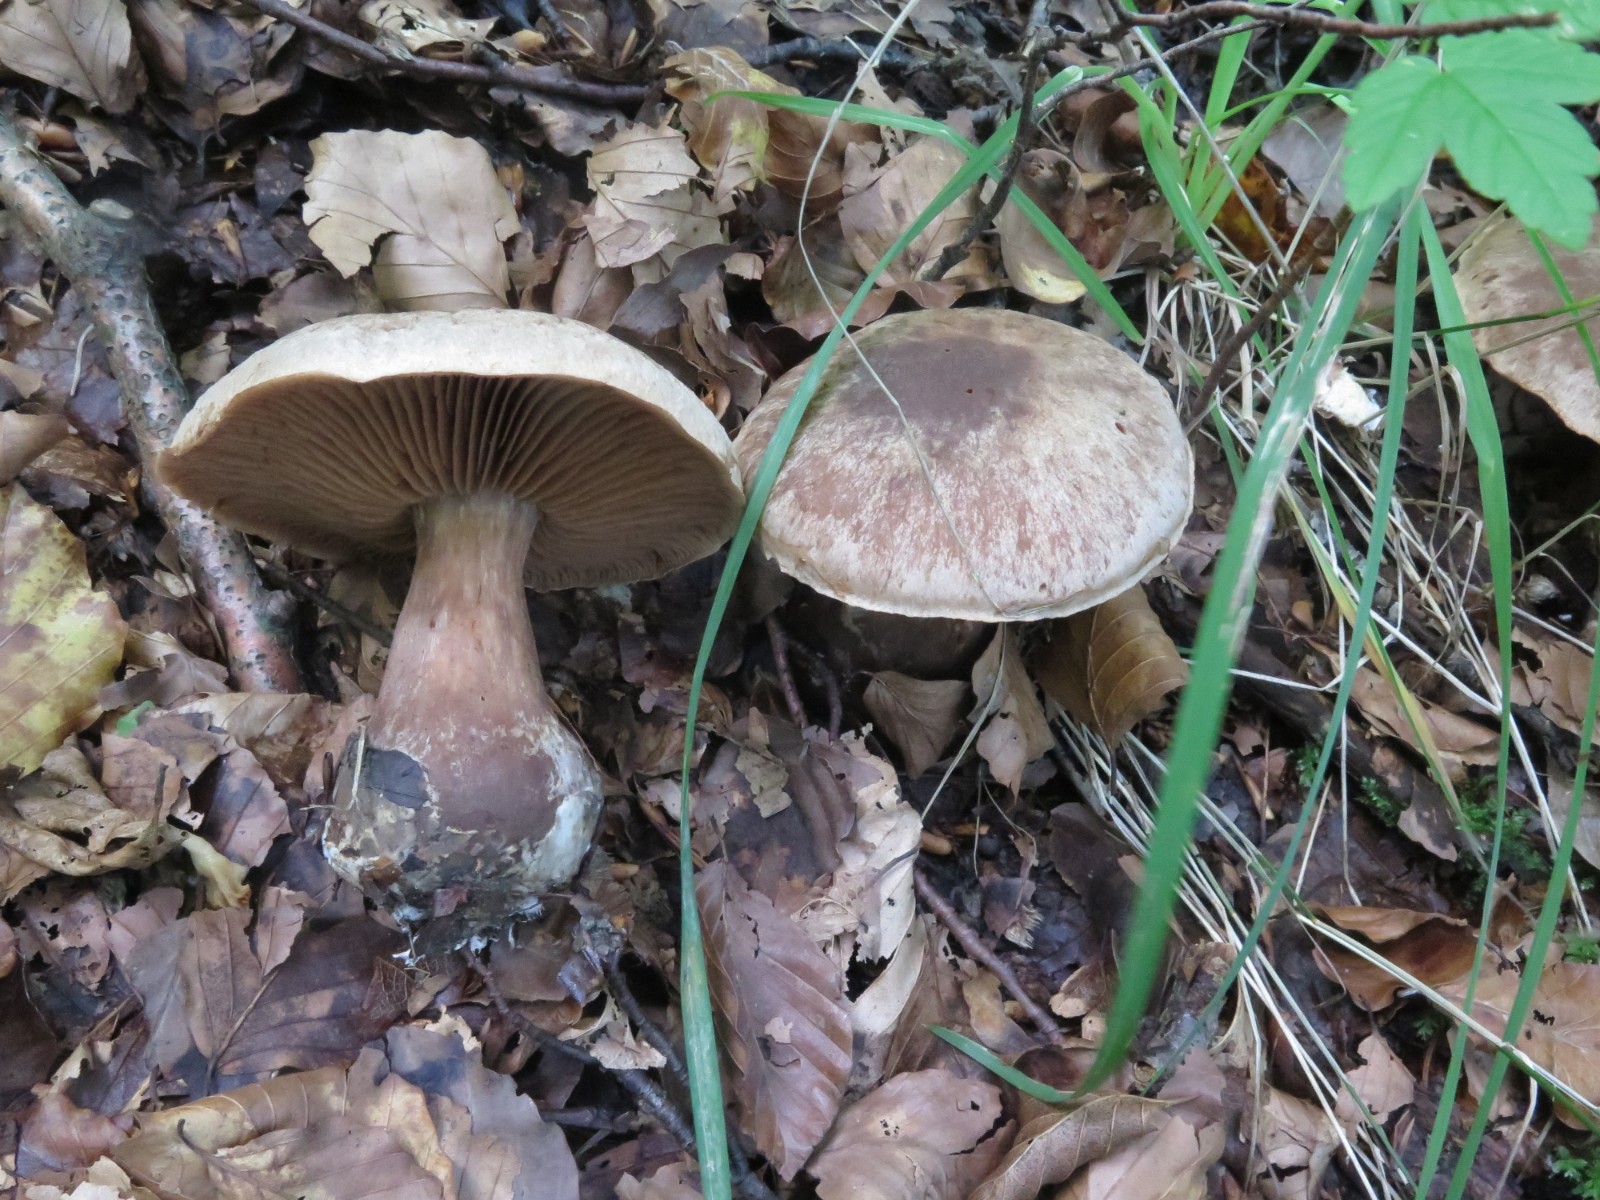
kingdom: Fungi
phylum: Basidiomycota
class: Agaricomycetes
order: Agaricales
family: Cortinariaceae
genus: Cortinarius
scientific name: Cortinarius stipitemirus
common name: vildsvine-slørhat
